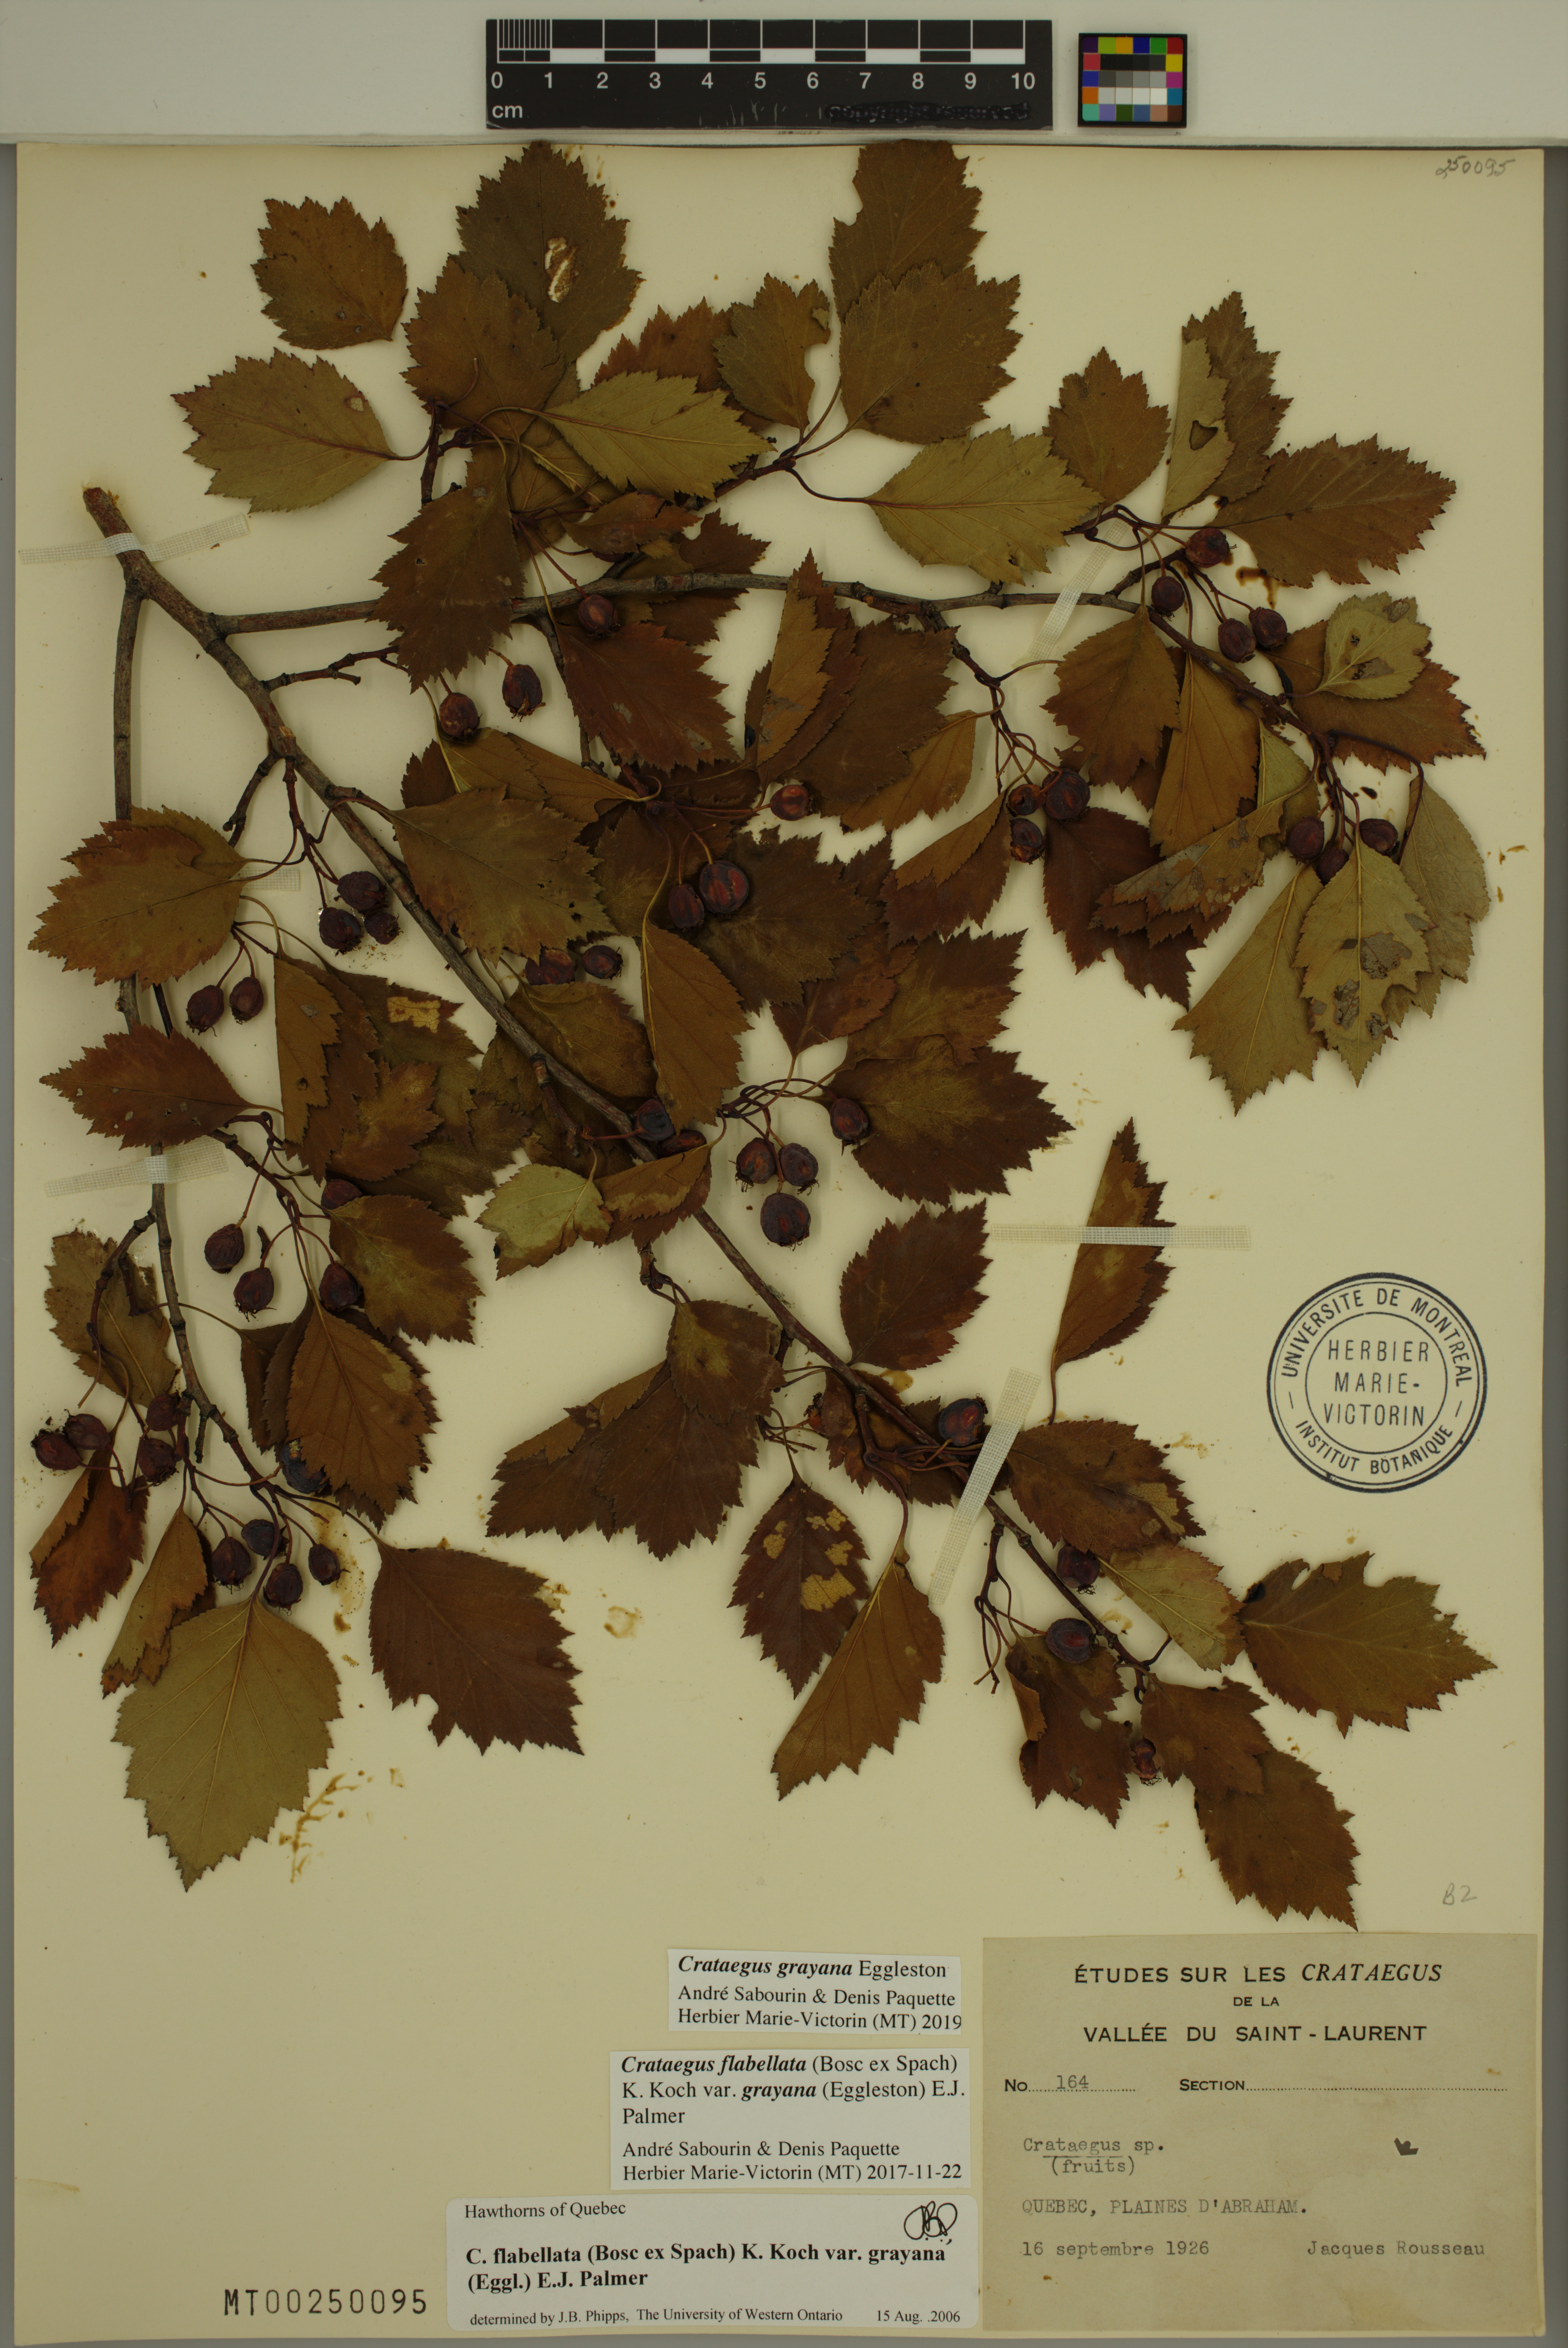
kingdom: Plantae
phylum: Tracheophyta
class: Magnoliopsida
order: Rosales
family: Rosaceae
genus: Crataegus
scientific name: Crataegus schuettei
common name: Schuette's hawthorn
